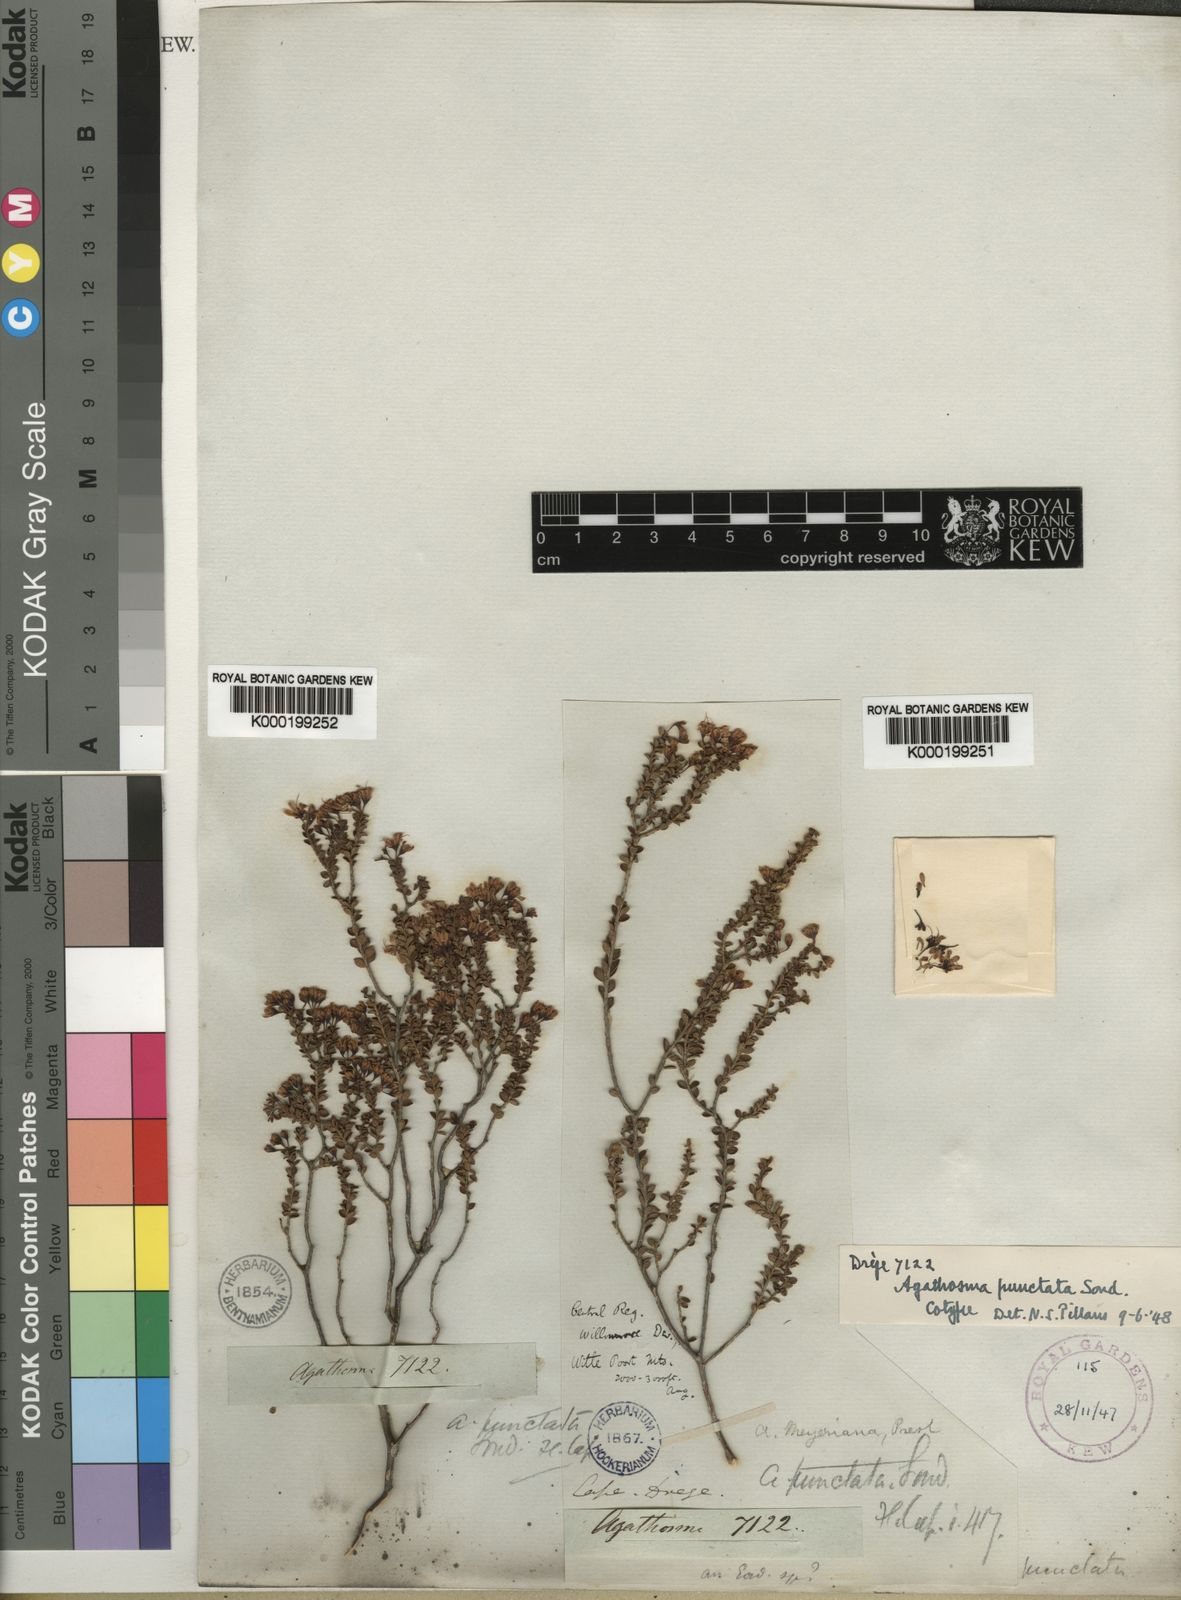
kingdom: Plantae
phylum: Tracheophyta
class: Magnoliopsida
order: Sapindales
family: Rutaceae
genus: Agathosma
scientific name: Agathosma ovalifolia
